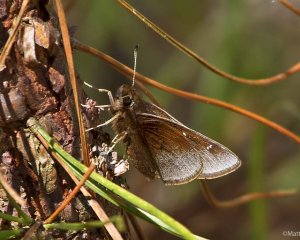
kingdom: Animalia
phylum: Arthropoda
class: Insecta
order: Lepidoptera
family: Hesperiidae
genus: Atrytonopsis
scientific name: Atrytonopsis hianna
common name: Dusted Skipper
